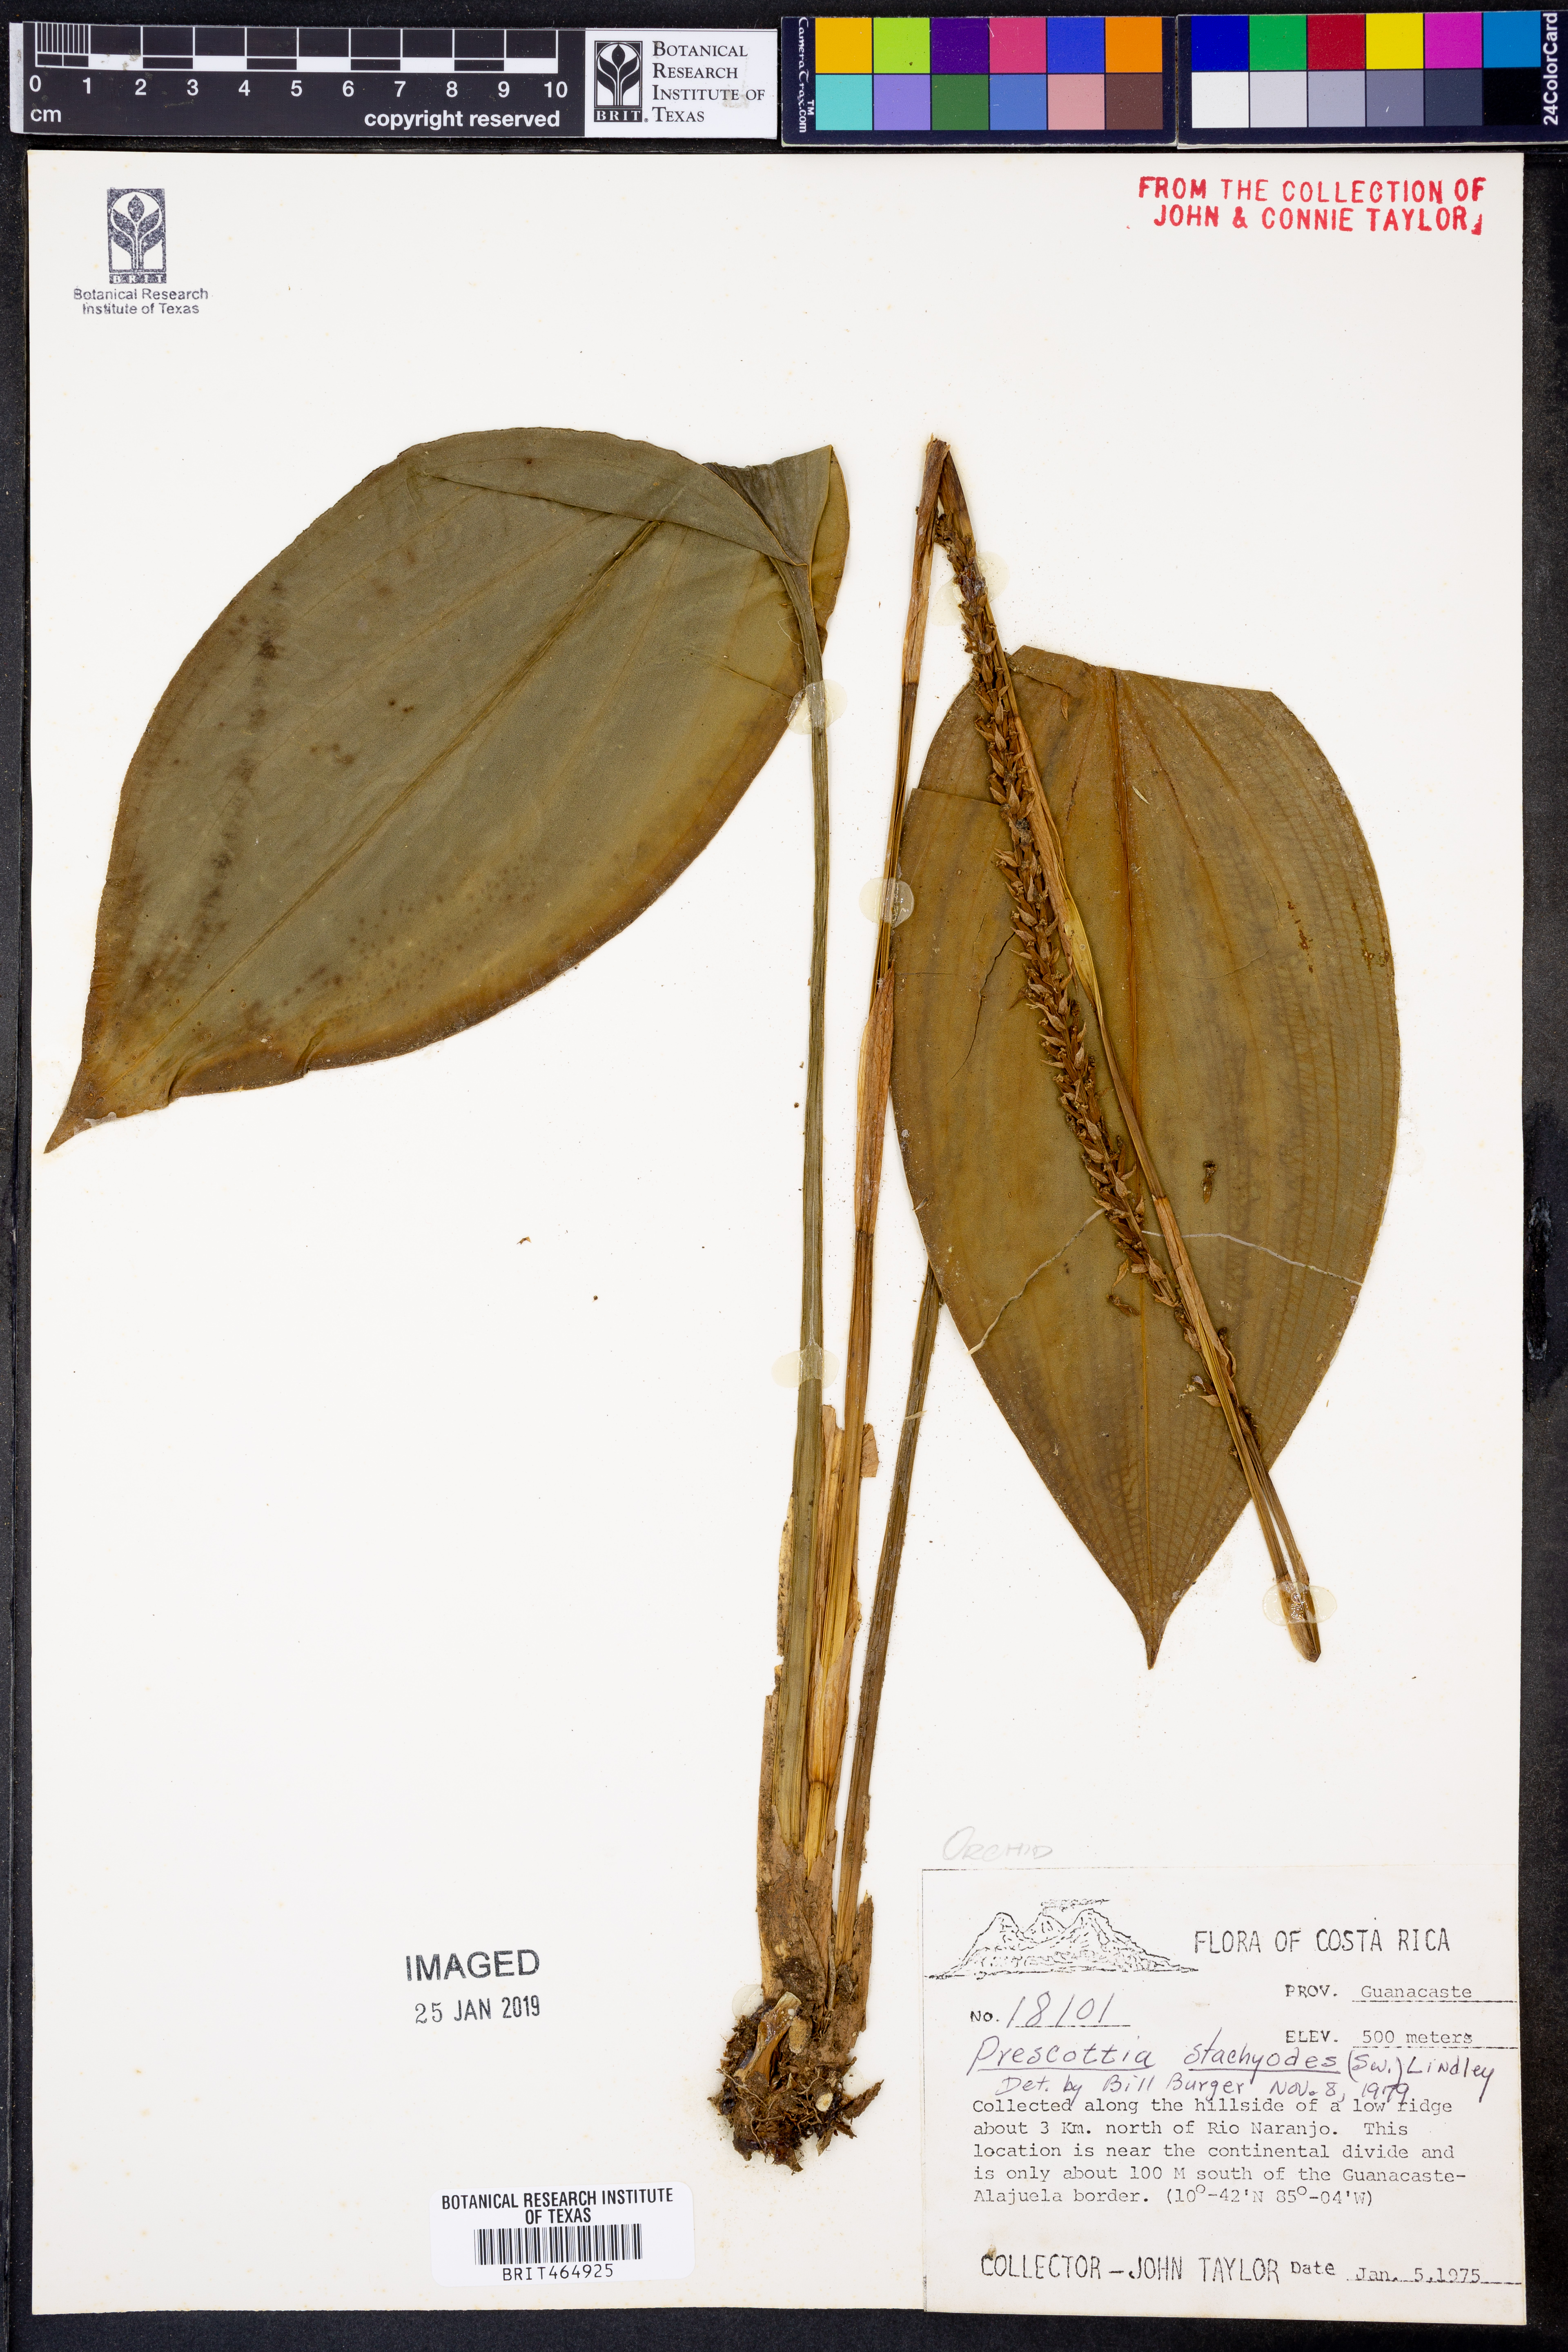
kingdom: Plantae
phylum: Tracheophyta
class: Liliopsida
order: Asparagales
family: Orchidaceae
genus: Prescottia
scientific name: Prescottia stachyodes
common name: Mountain prescott orchid
